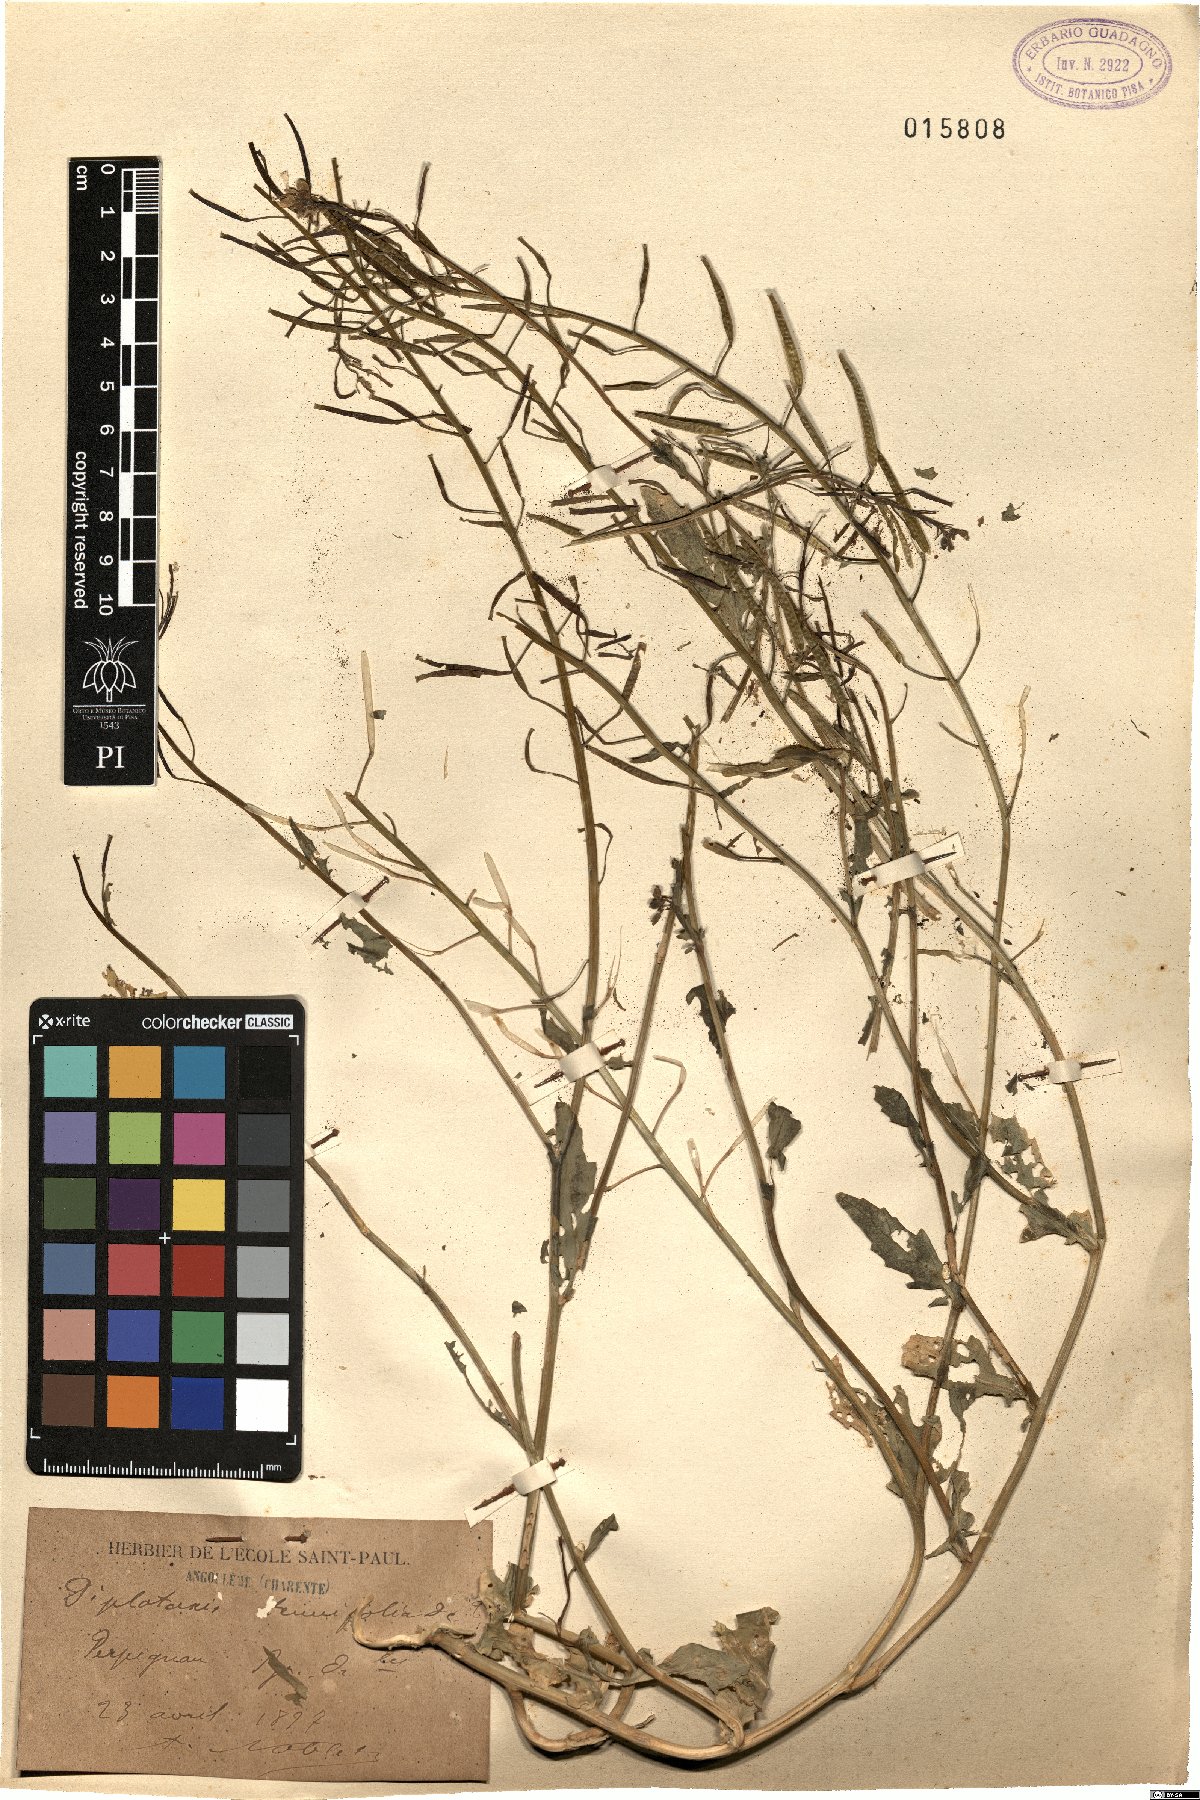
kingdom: Plantae
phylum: Tracheophyta
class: Magnoliopsida
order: Brassicales
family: Brassicaceae
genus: Diplotaxis
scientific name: Diplotaxis tenuifolia
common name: Perennial wall-rocket
